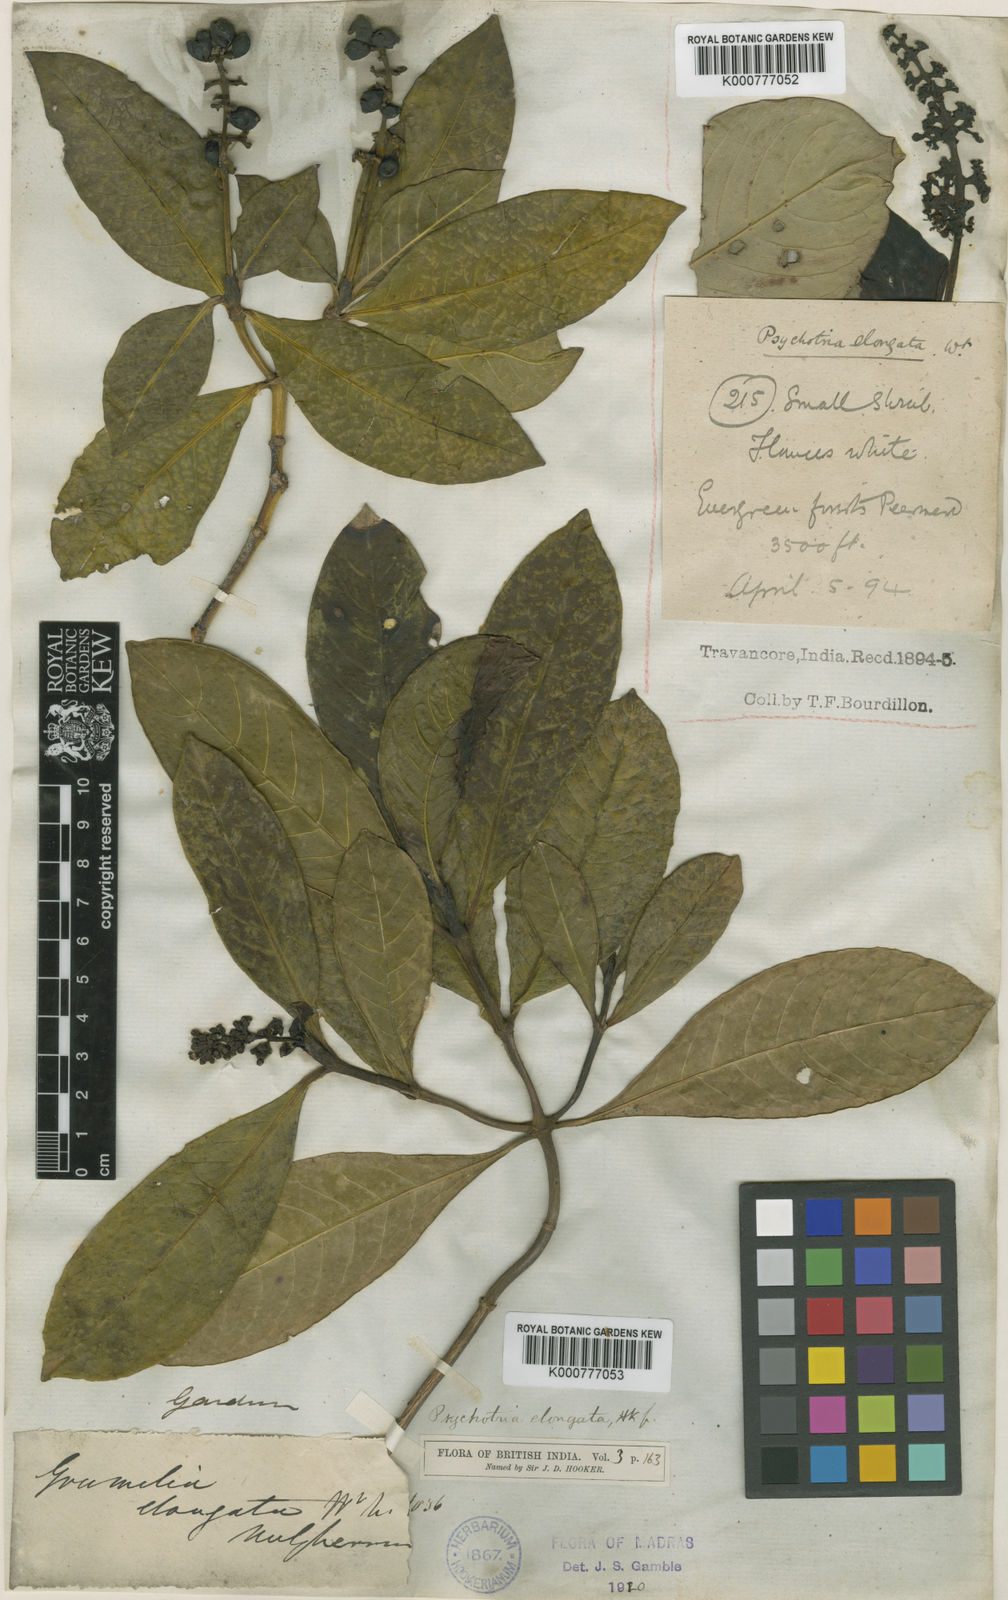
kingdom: Plantae
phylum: Tracheophyta
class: Magnoliopsida
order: Gentianales
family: Rubiaceae
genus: Psychotria
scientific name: Psychotria nilgherensis
